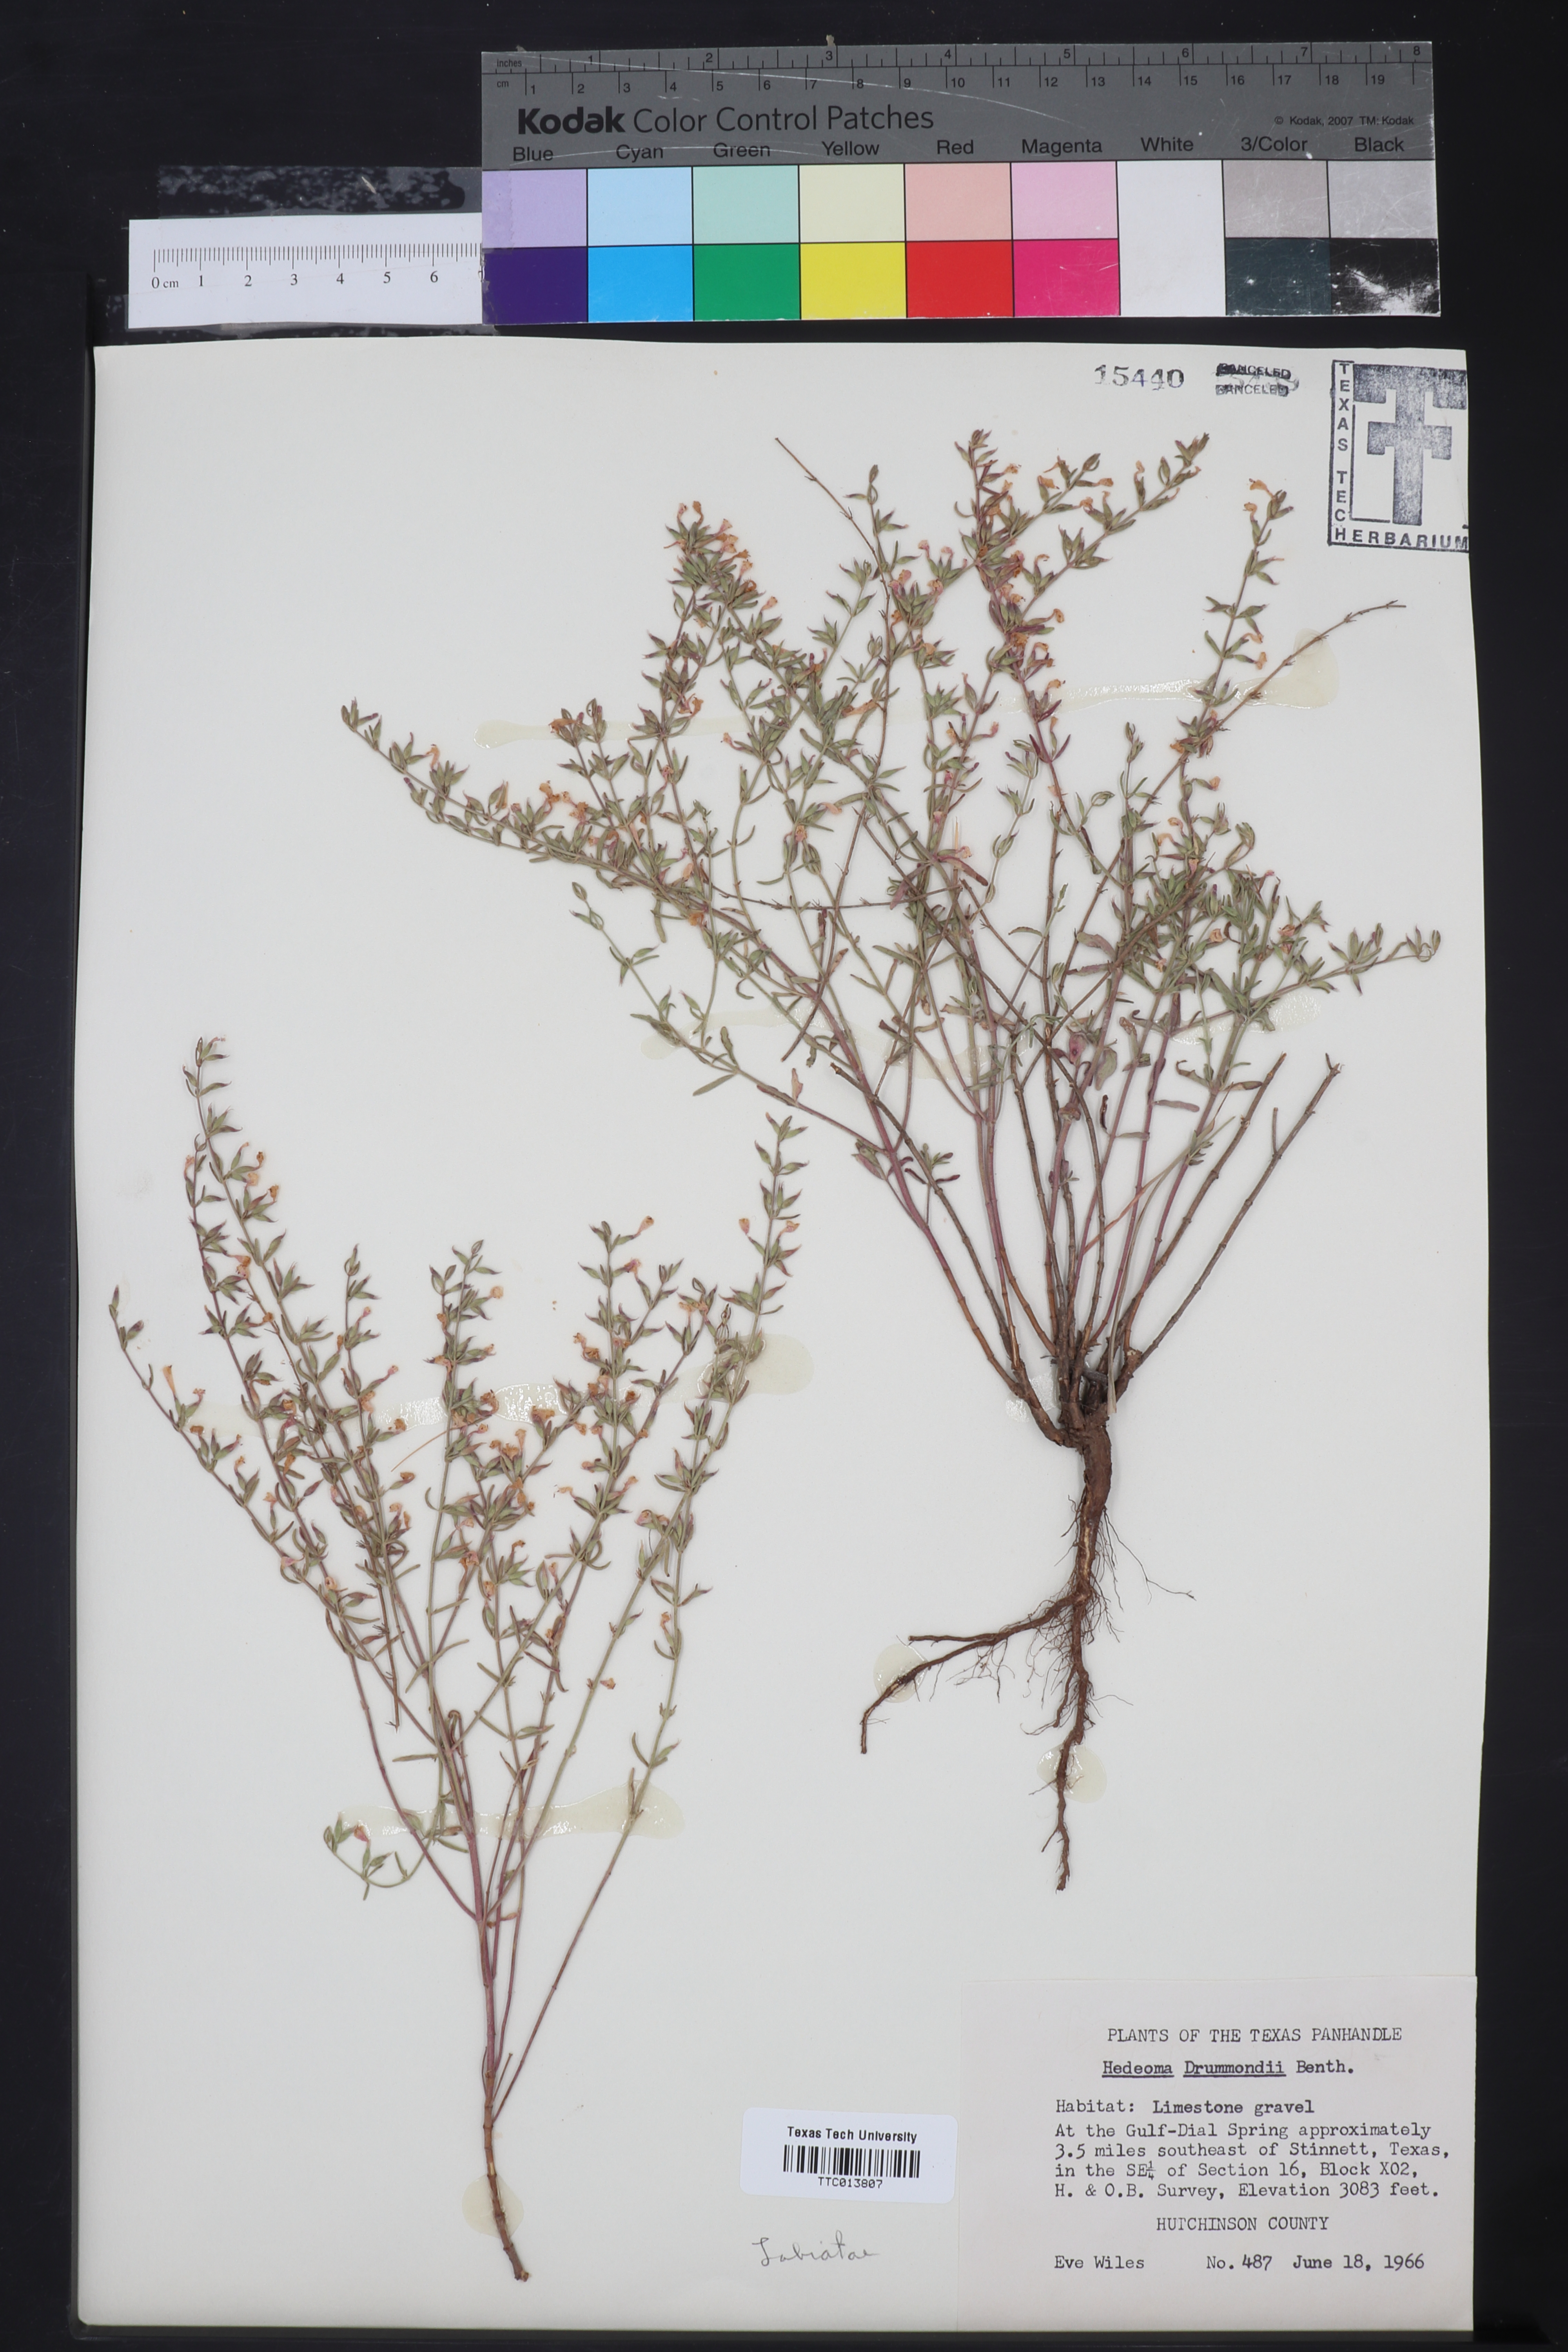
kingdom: Plantae
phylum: Tracheophyta
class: Magnoliopsida
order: Lamiales
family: Lamiaceae
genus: Hedeoma
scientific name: Hedeoma drummondii
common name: New mexico pennyroyal
